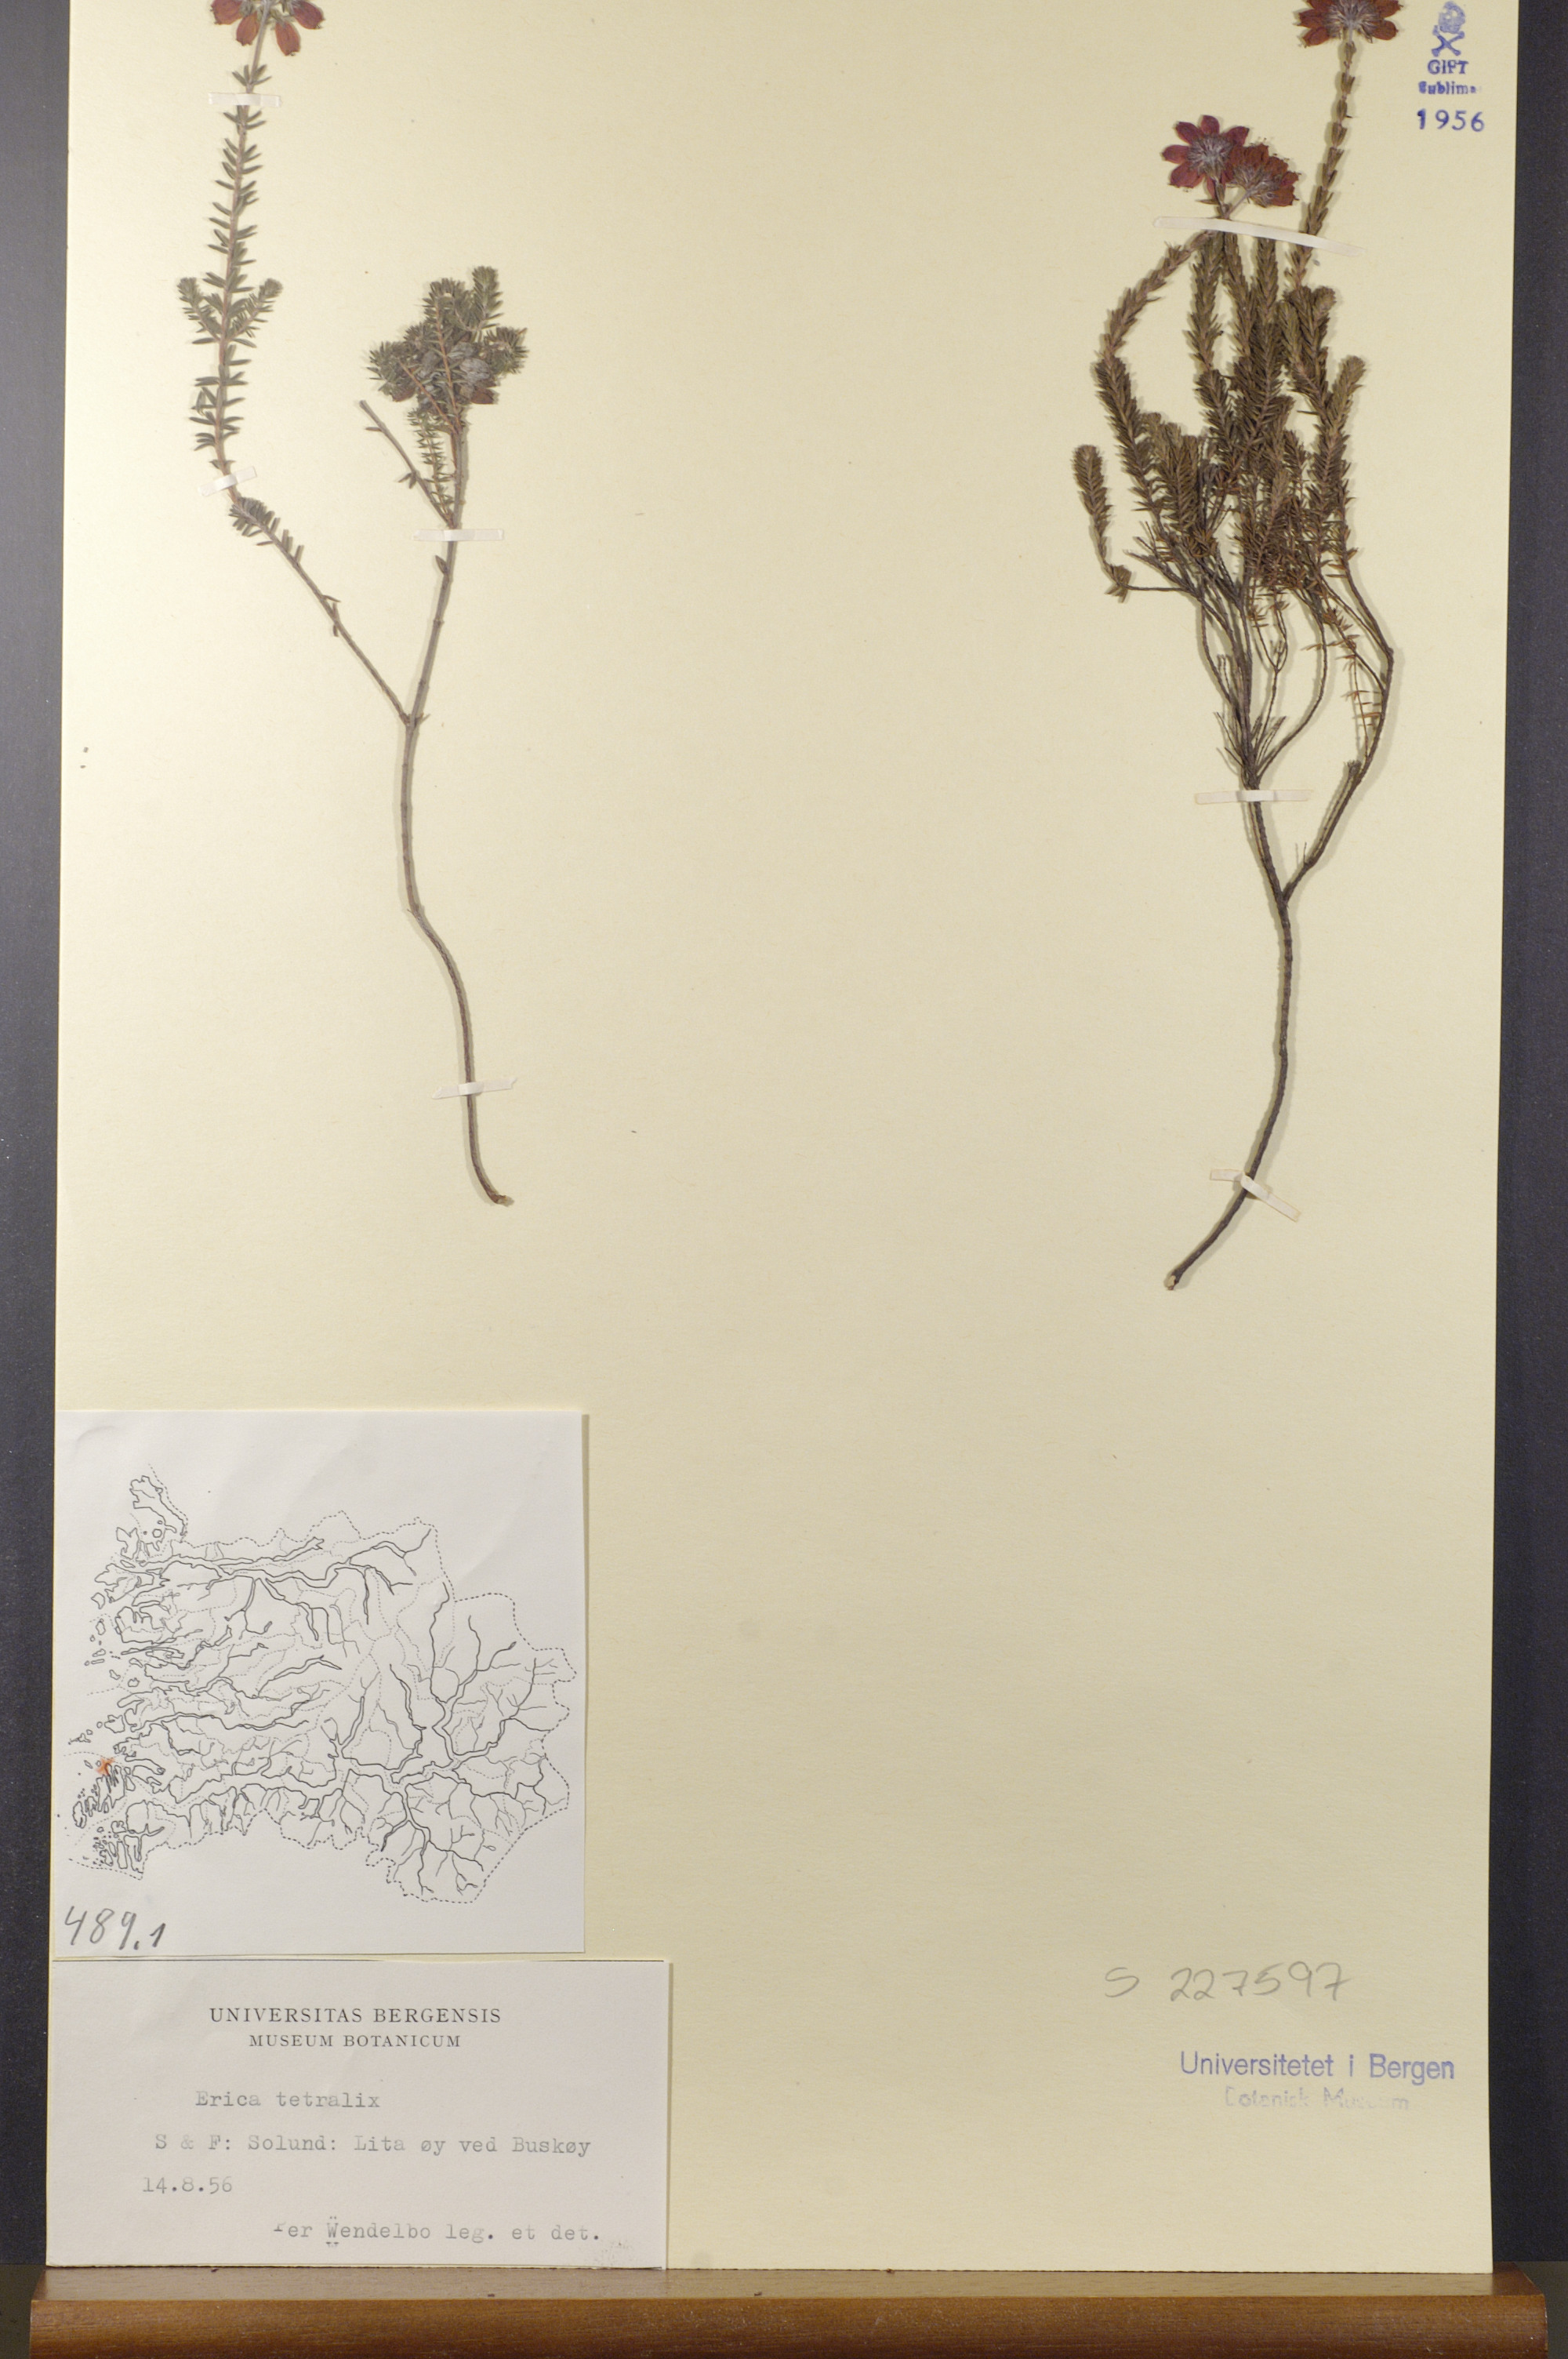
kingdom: Plantae
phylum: Tracheophyta
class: Magnoliopsida
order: Ericales
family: Ericaceae
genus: Erica
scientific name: Erica tetralix
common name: Cross-leaved heath
